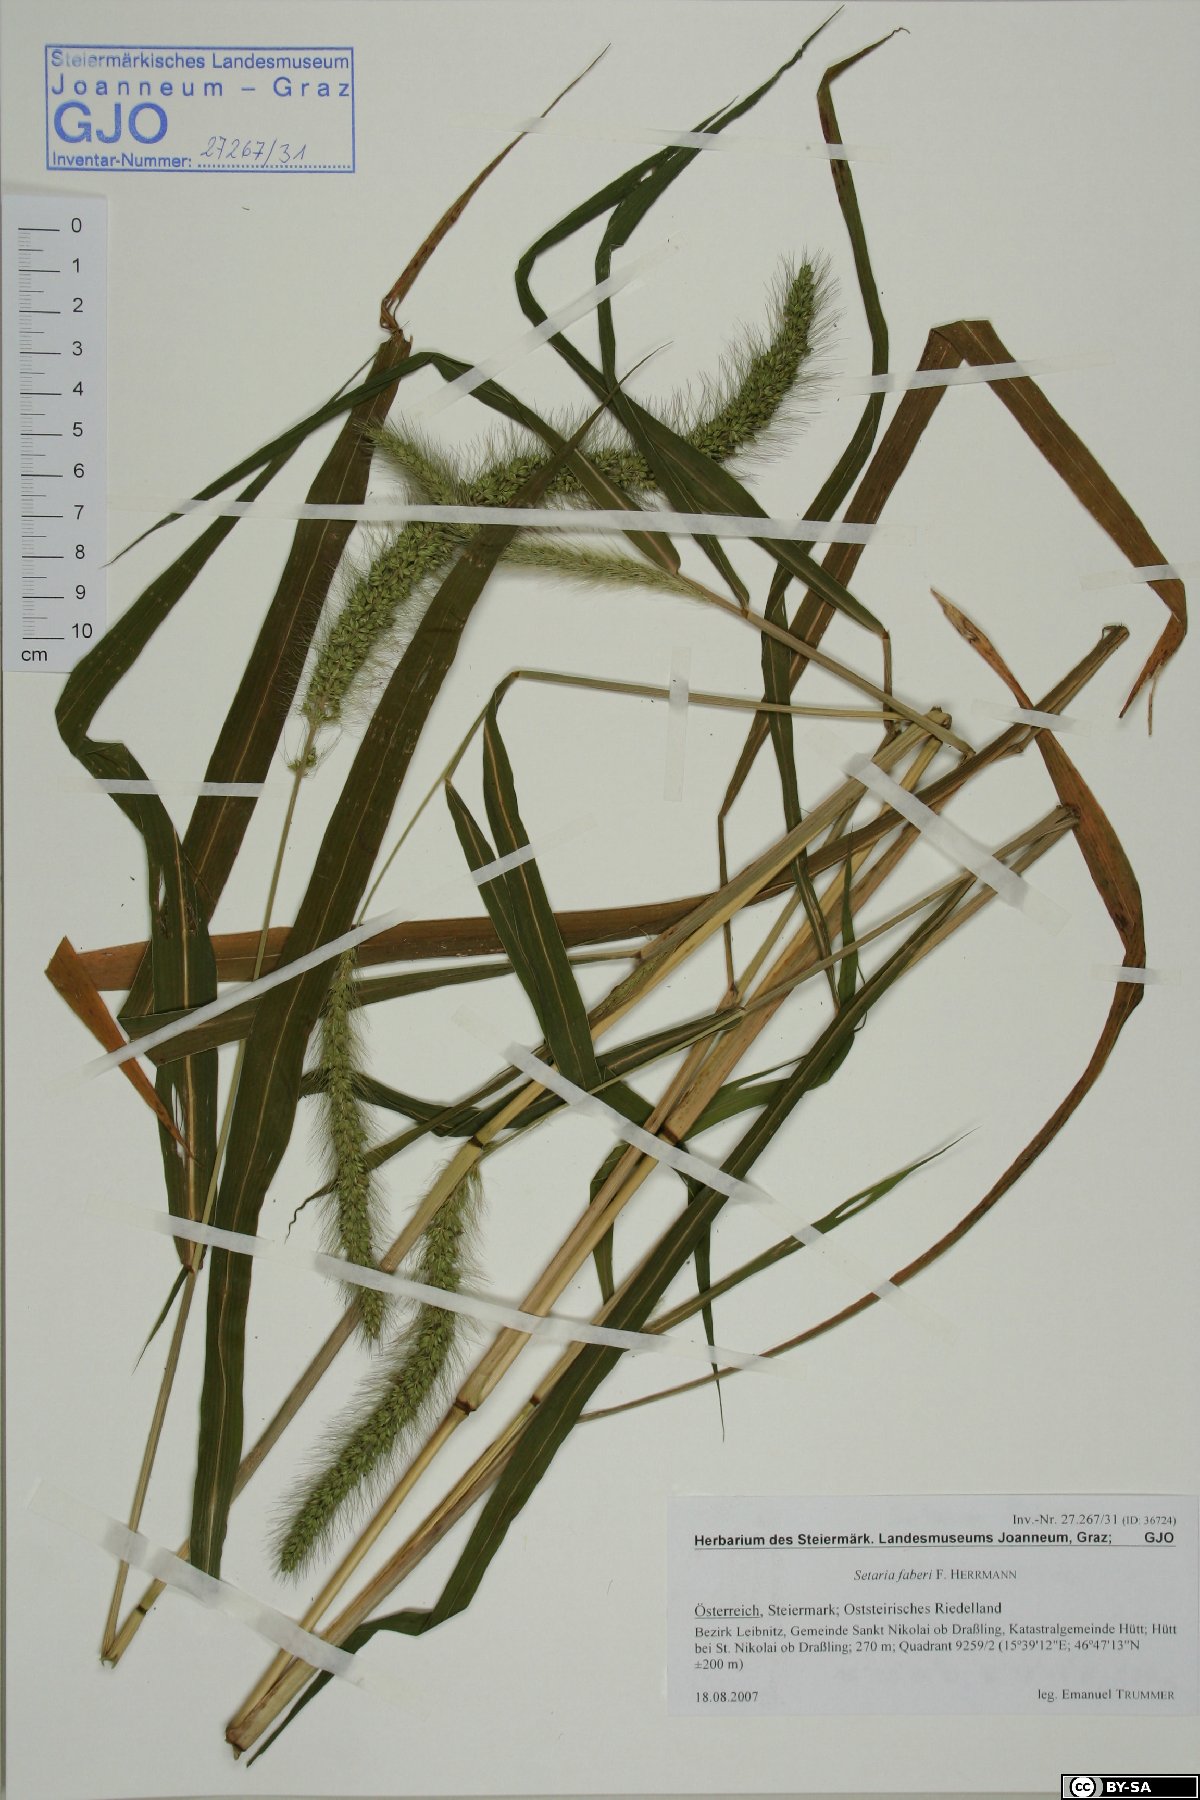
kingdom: Plantae
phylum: Tracheophyta
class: Liliopsida
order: Poales
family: Poaceae
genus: Setaria
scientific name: Setaria faberi
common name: Nodding bristle-grass
